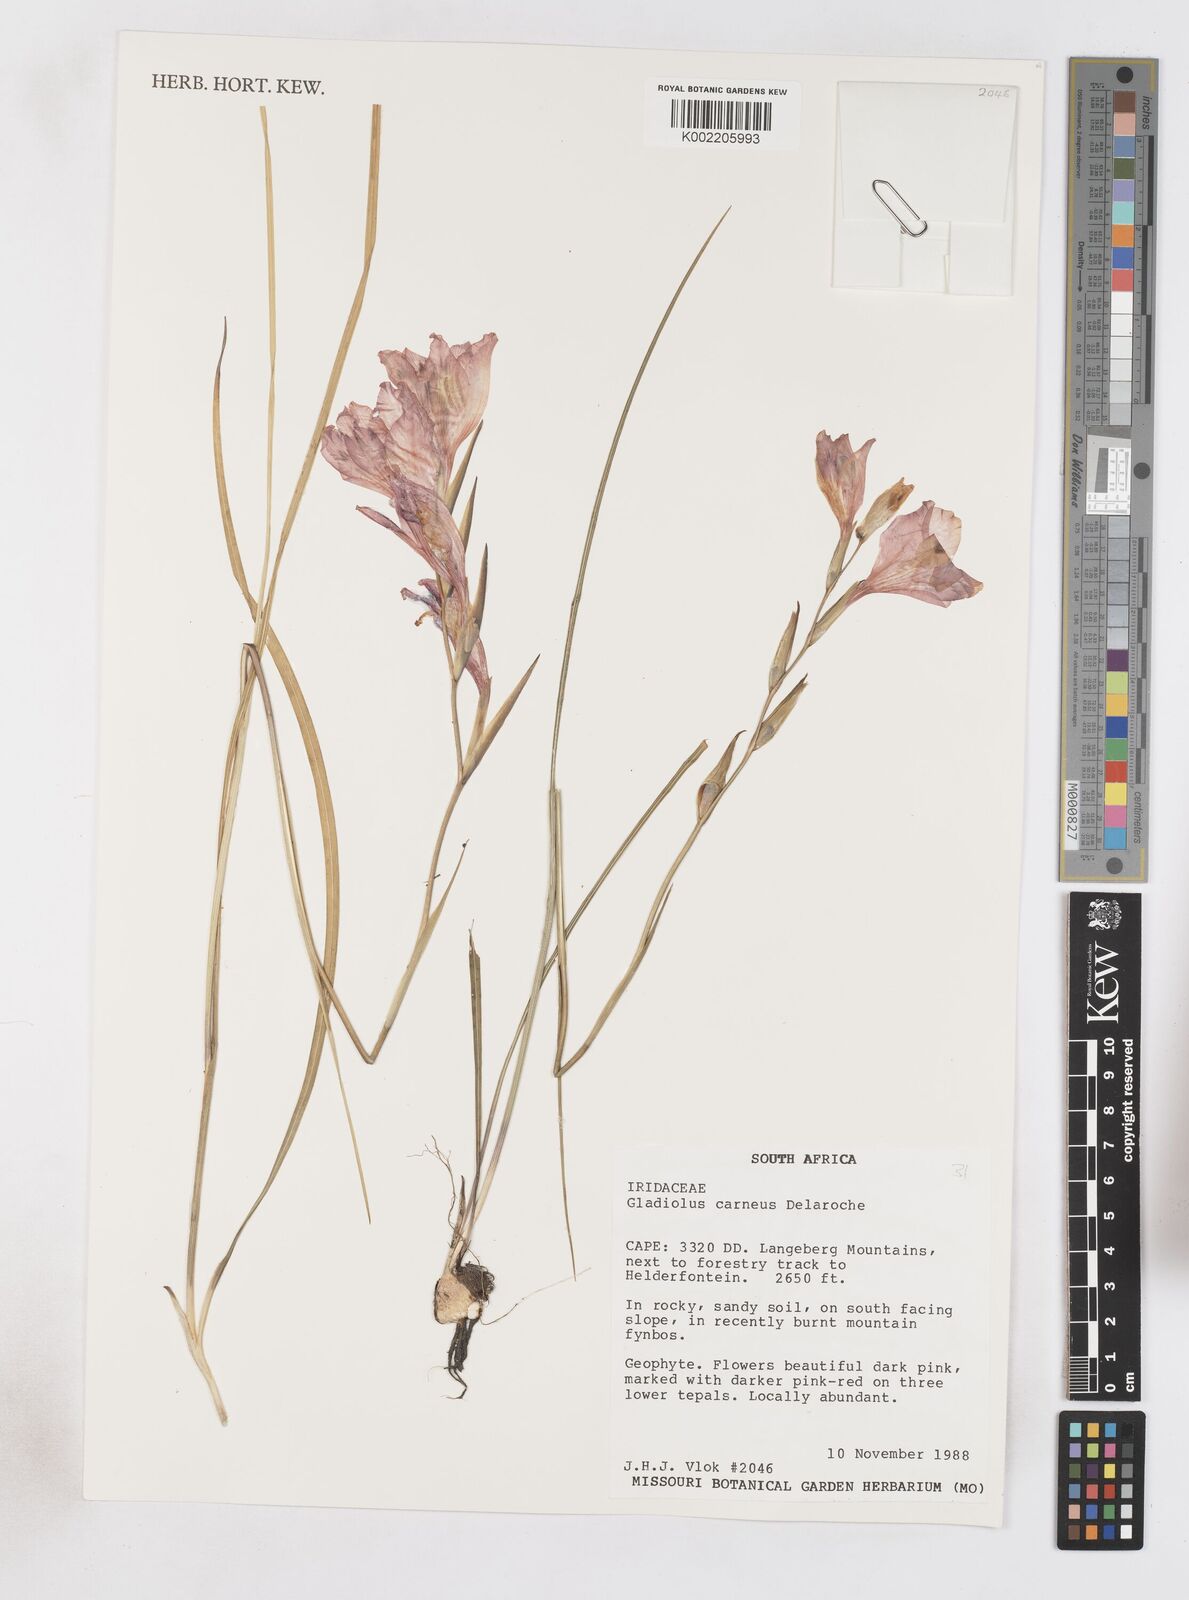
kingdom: Plantae
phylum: Tracheophyta
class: Liliopsida
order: Asparagales
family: Iridaceae
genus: Gladiolus
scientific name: Gladiolus oreocharis
